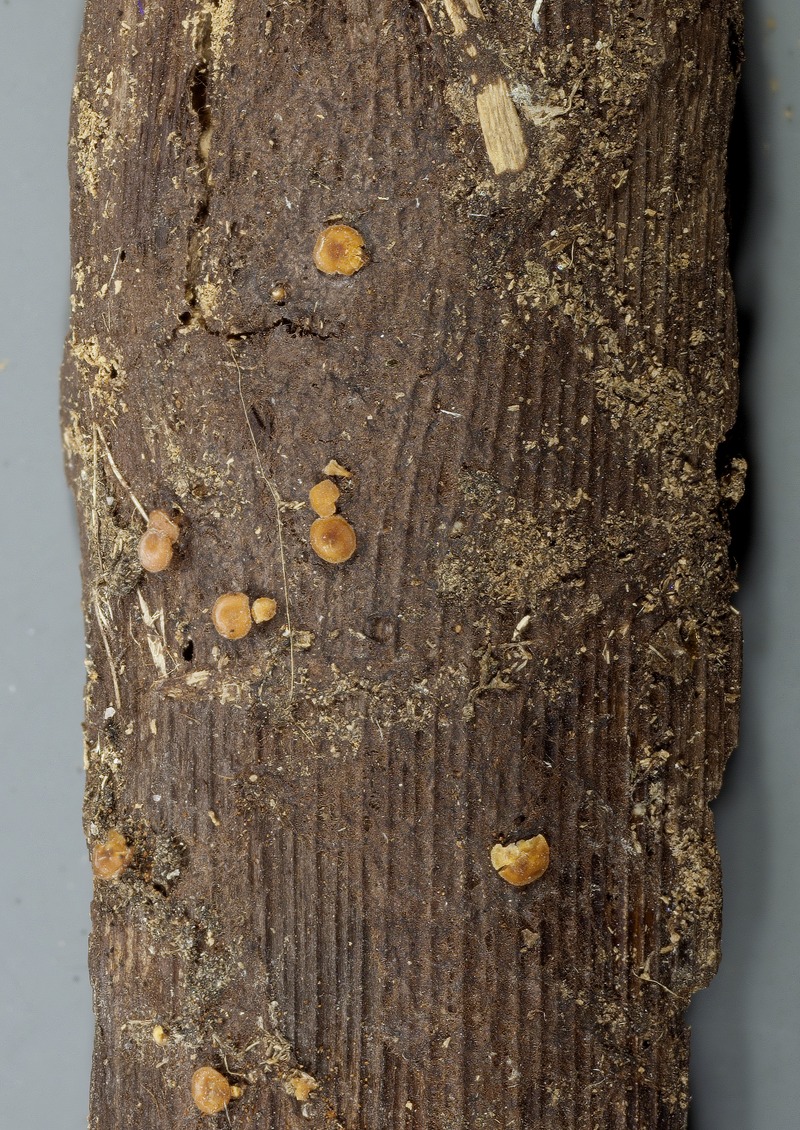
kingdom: Fungi
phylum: Ascomycota
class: Leotiomycetes
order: Helotiales
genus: Trichohelotium
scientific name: Trichohelotium rosae
